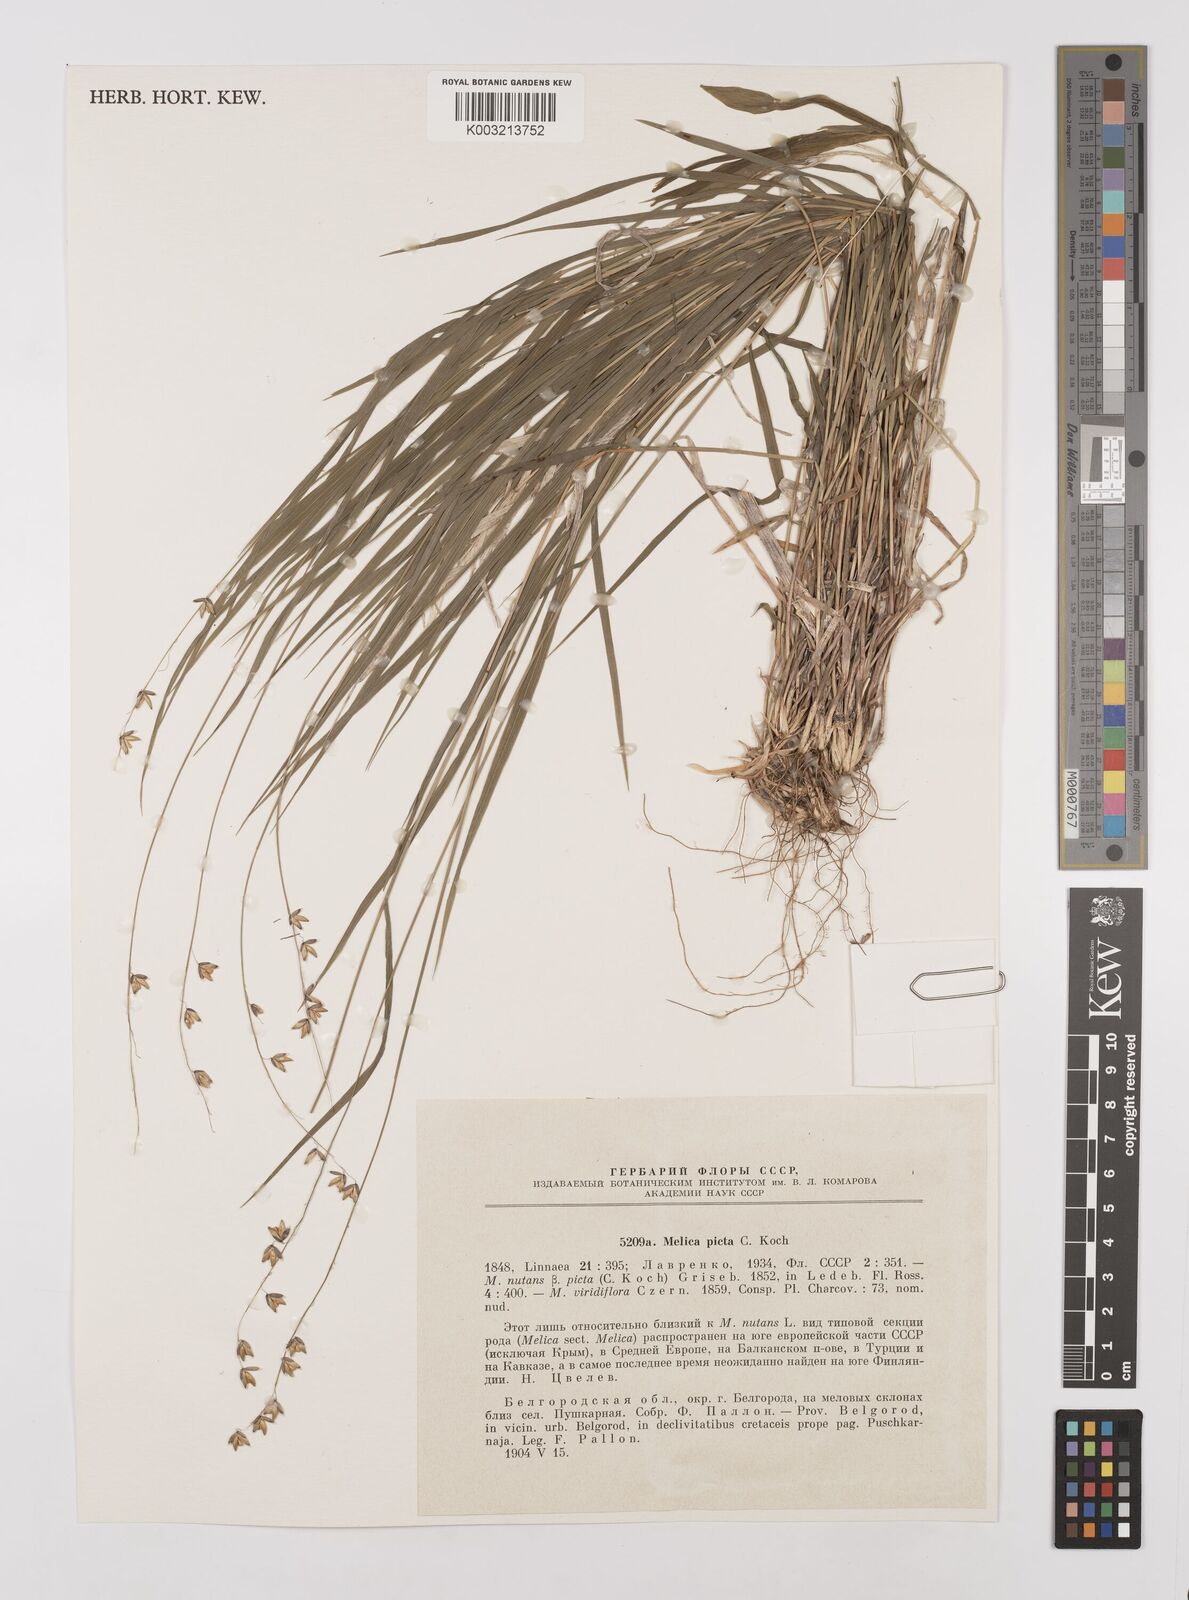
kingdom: Plantae
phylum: Tracheophyta
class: Liliopsida
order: Poales
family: Poaceae
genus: Melica
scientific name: Melica picta
